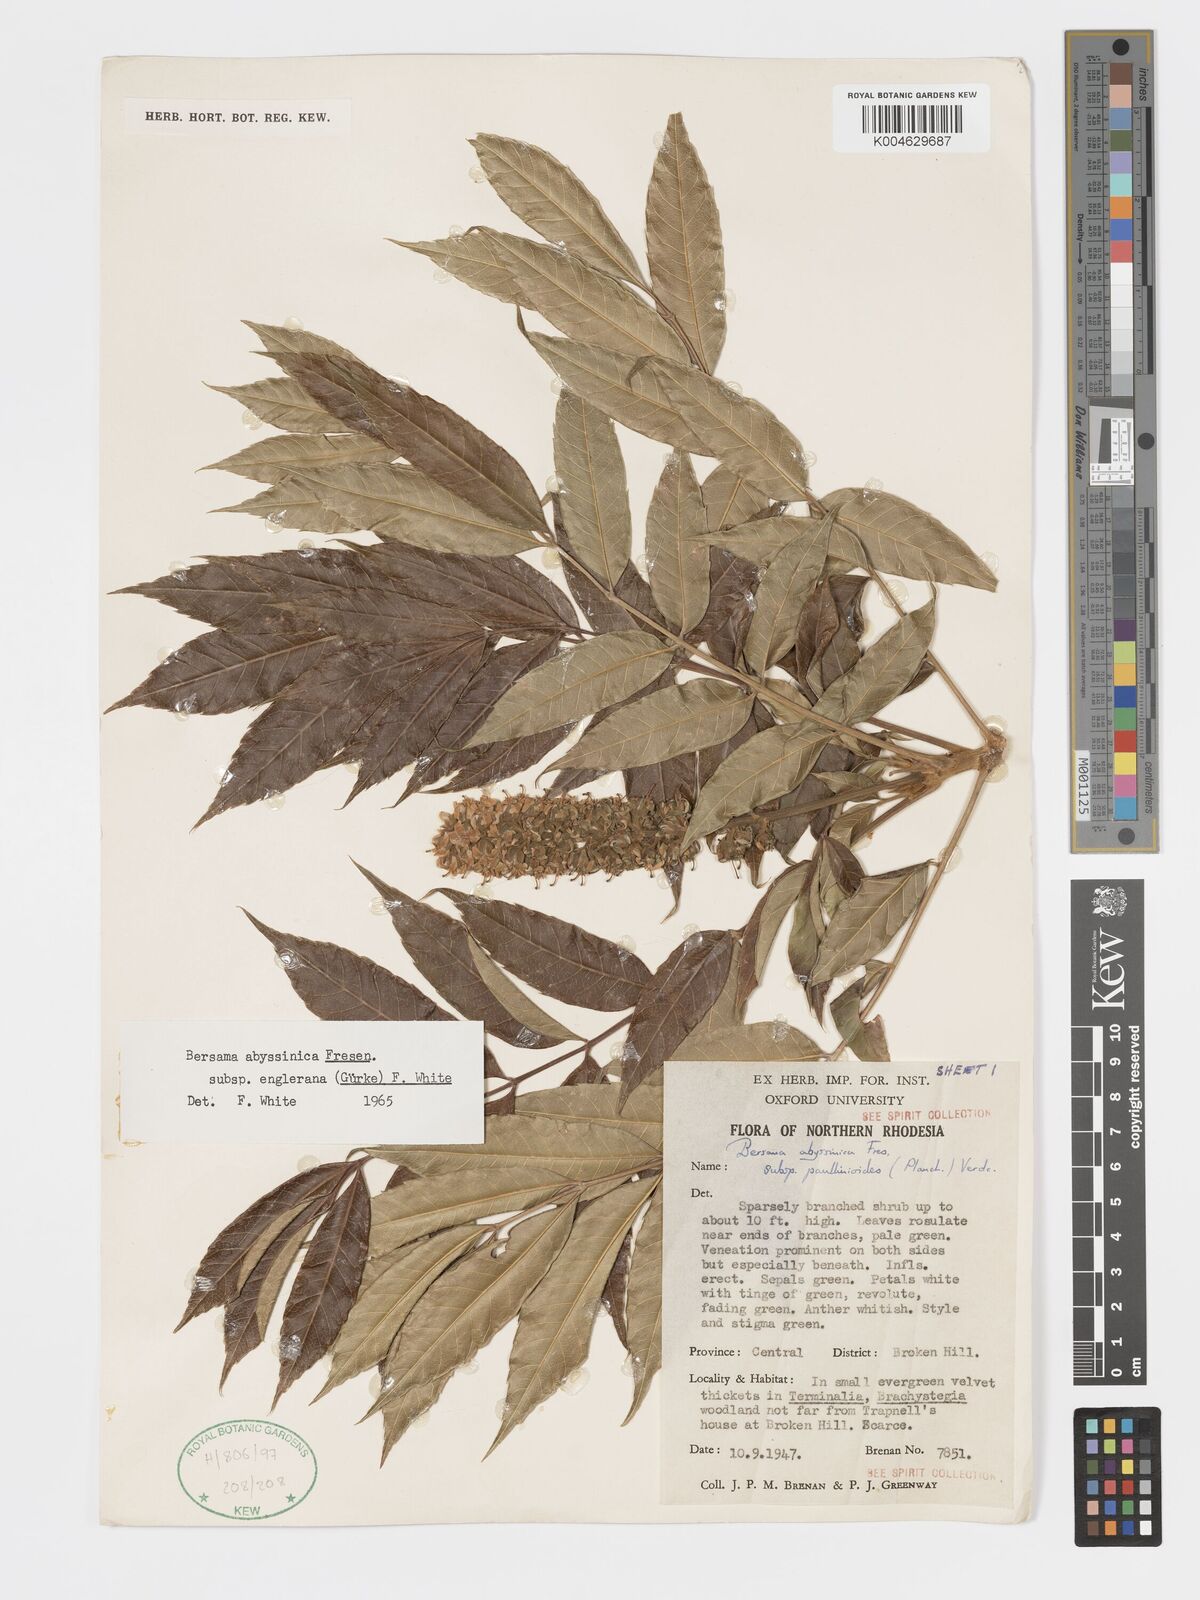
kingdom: Plantae
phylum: Tracheophyta
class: Magnoliopsida
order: Geraniales
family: Melianthaceae
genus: Bersama
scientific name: Bersama abyssinica
